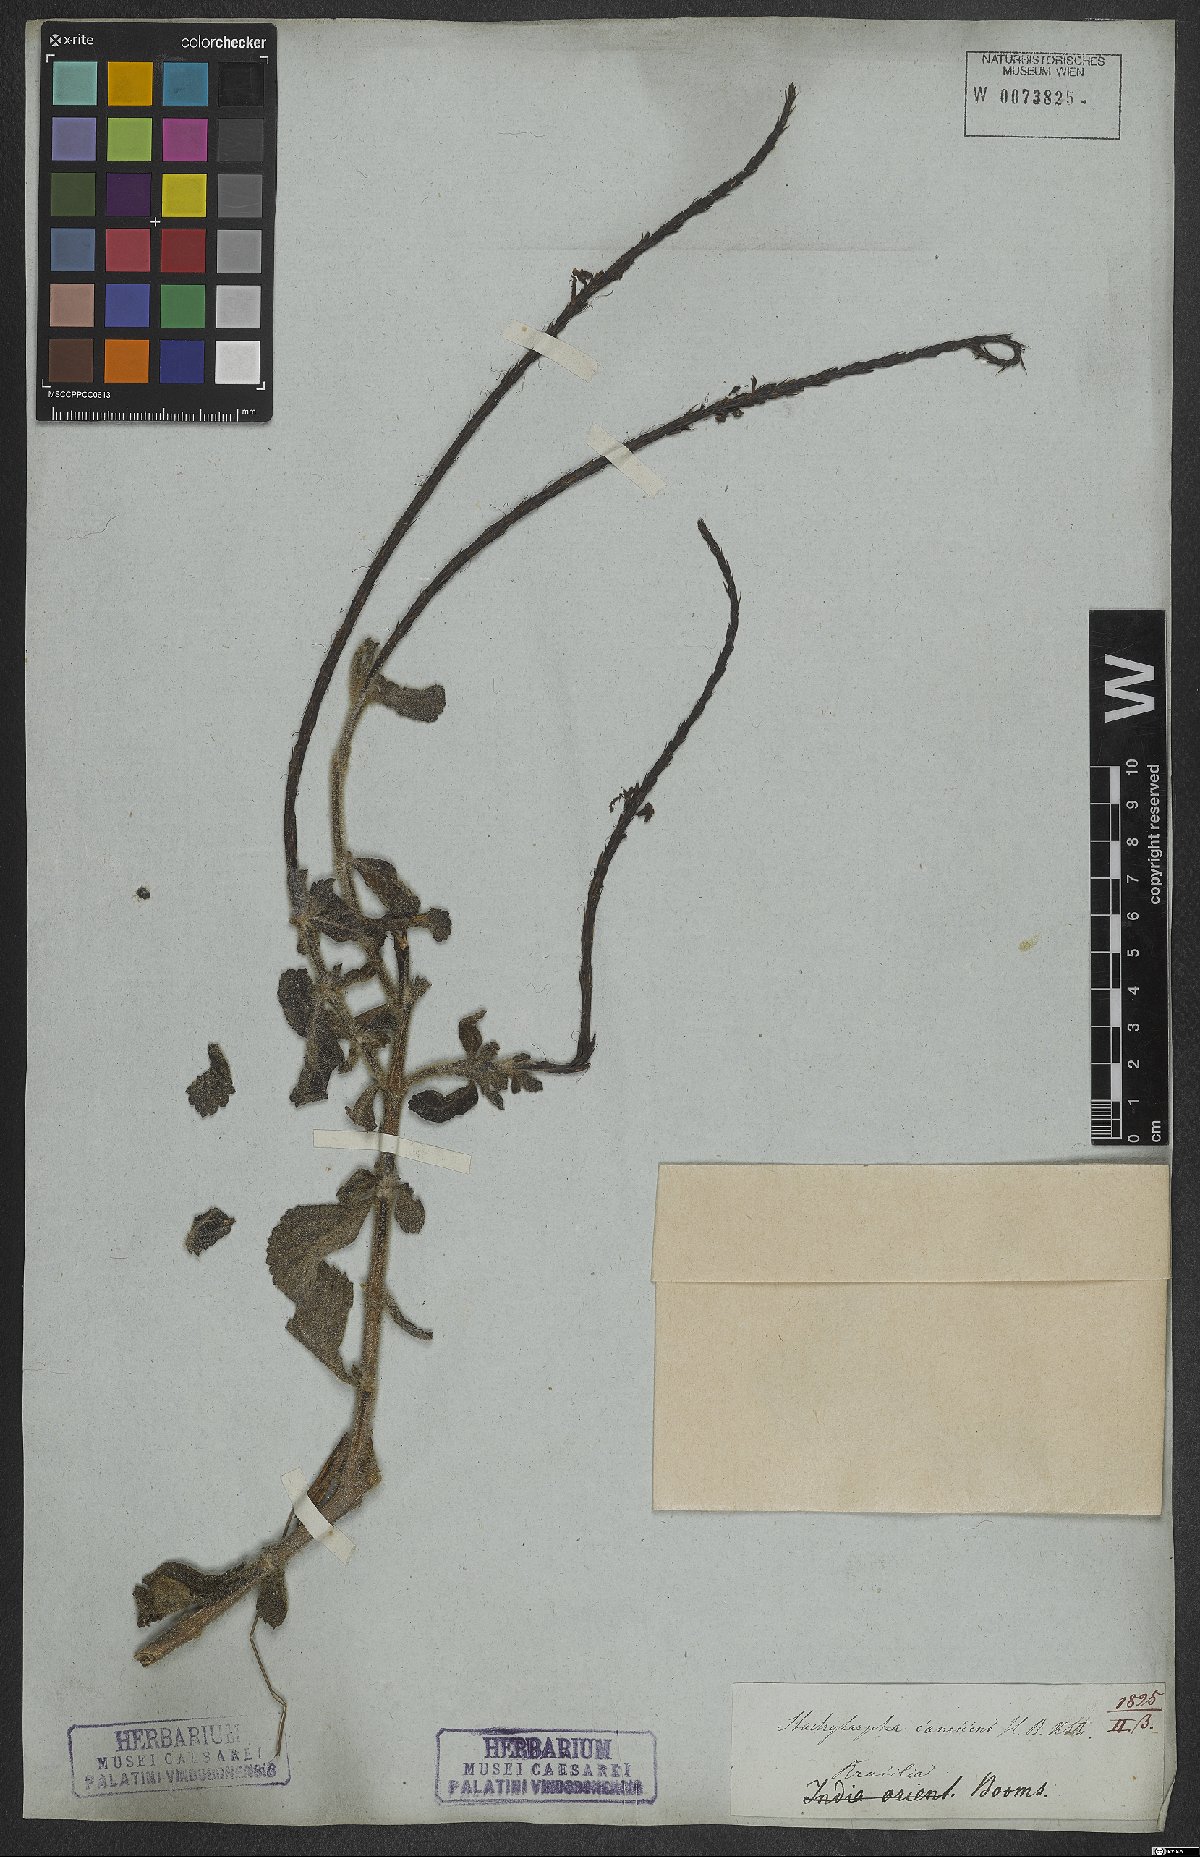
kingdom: Plantae
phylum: Tracheophyta
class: Magnoliopsida
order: Lamiales
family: Verbenaceae
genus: Stachytarpheta
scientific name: Stachytarpheta canescens
